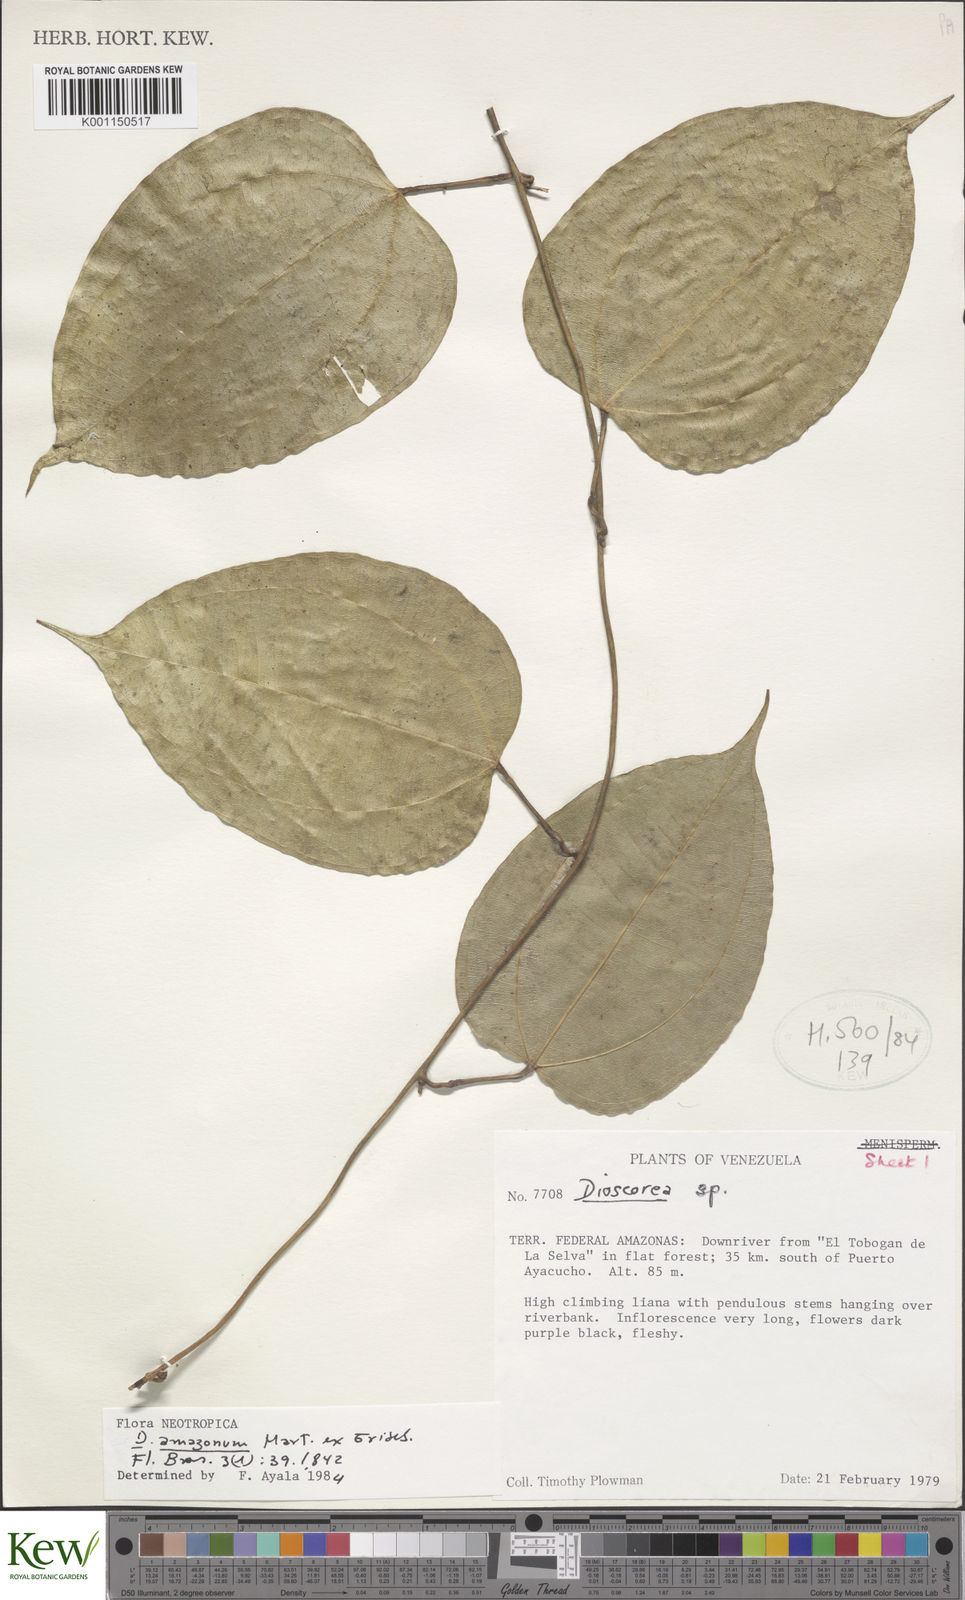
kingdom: Plantae
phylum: Tracheophyta
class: Liliopsida
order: Dioscoreales
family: Dioscoreaceae
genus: Dioscorea
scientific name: Dioscorea amazonum
